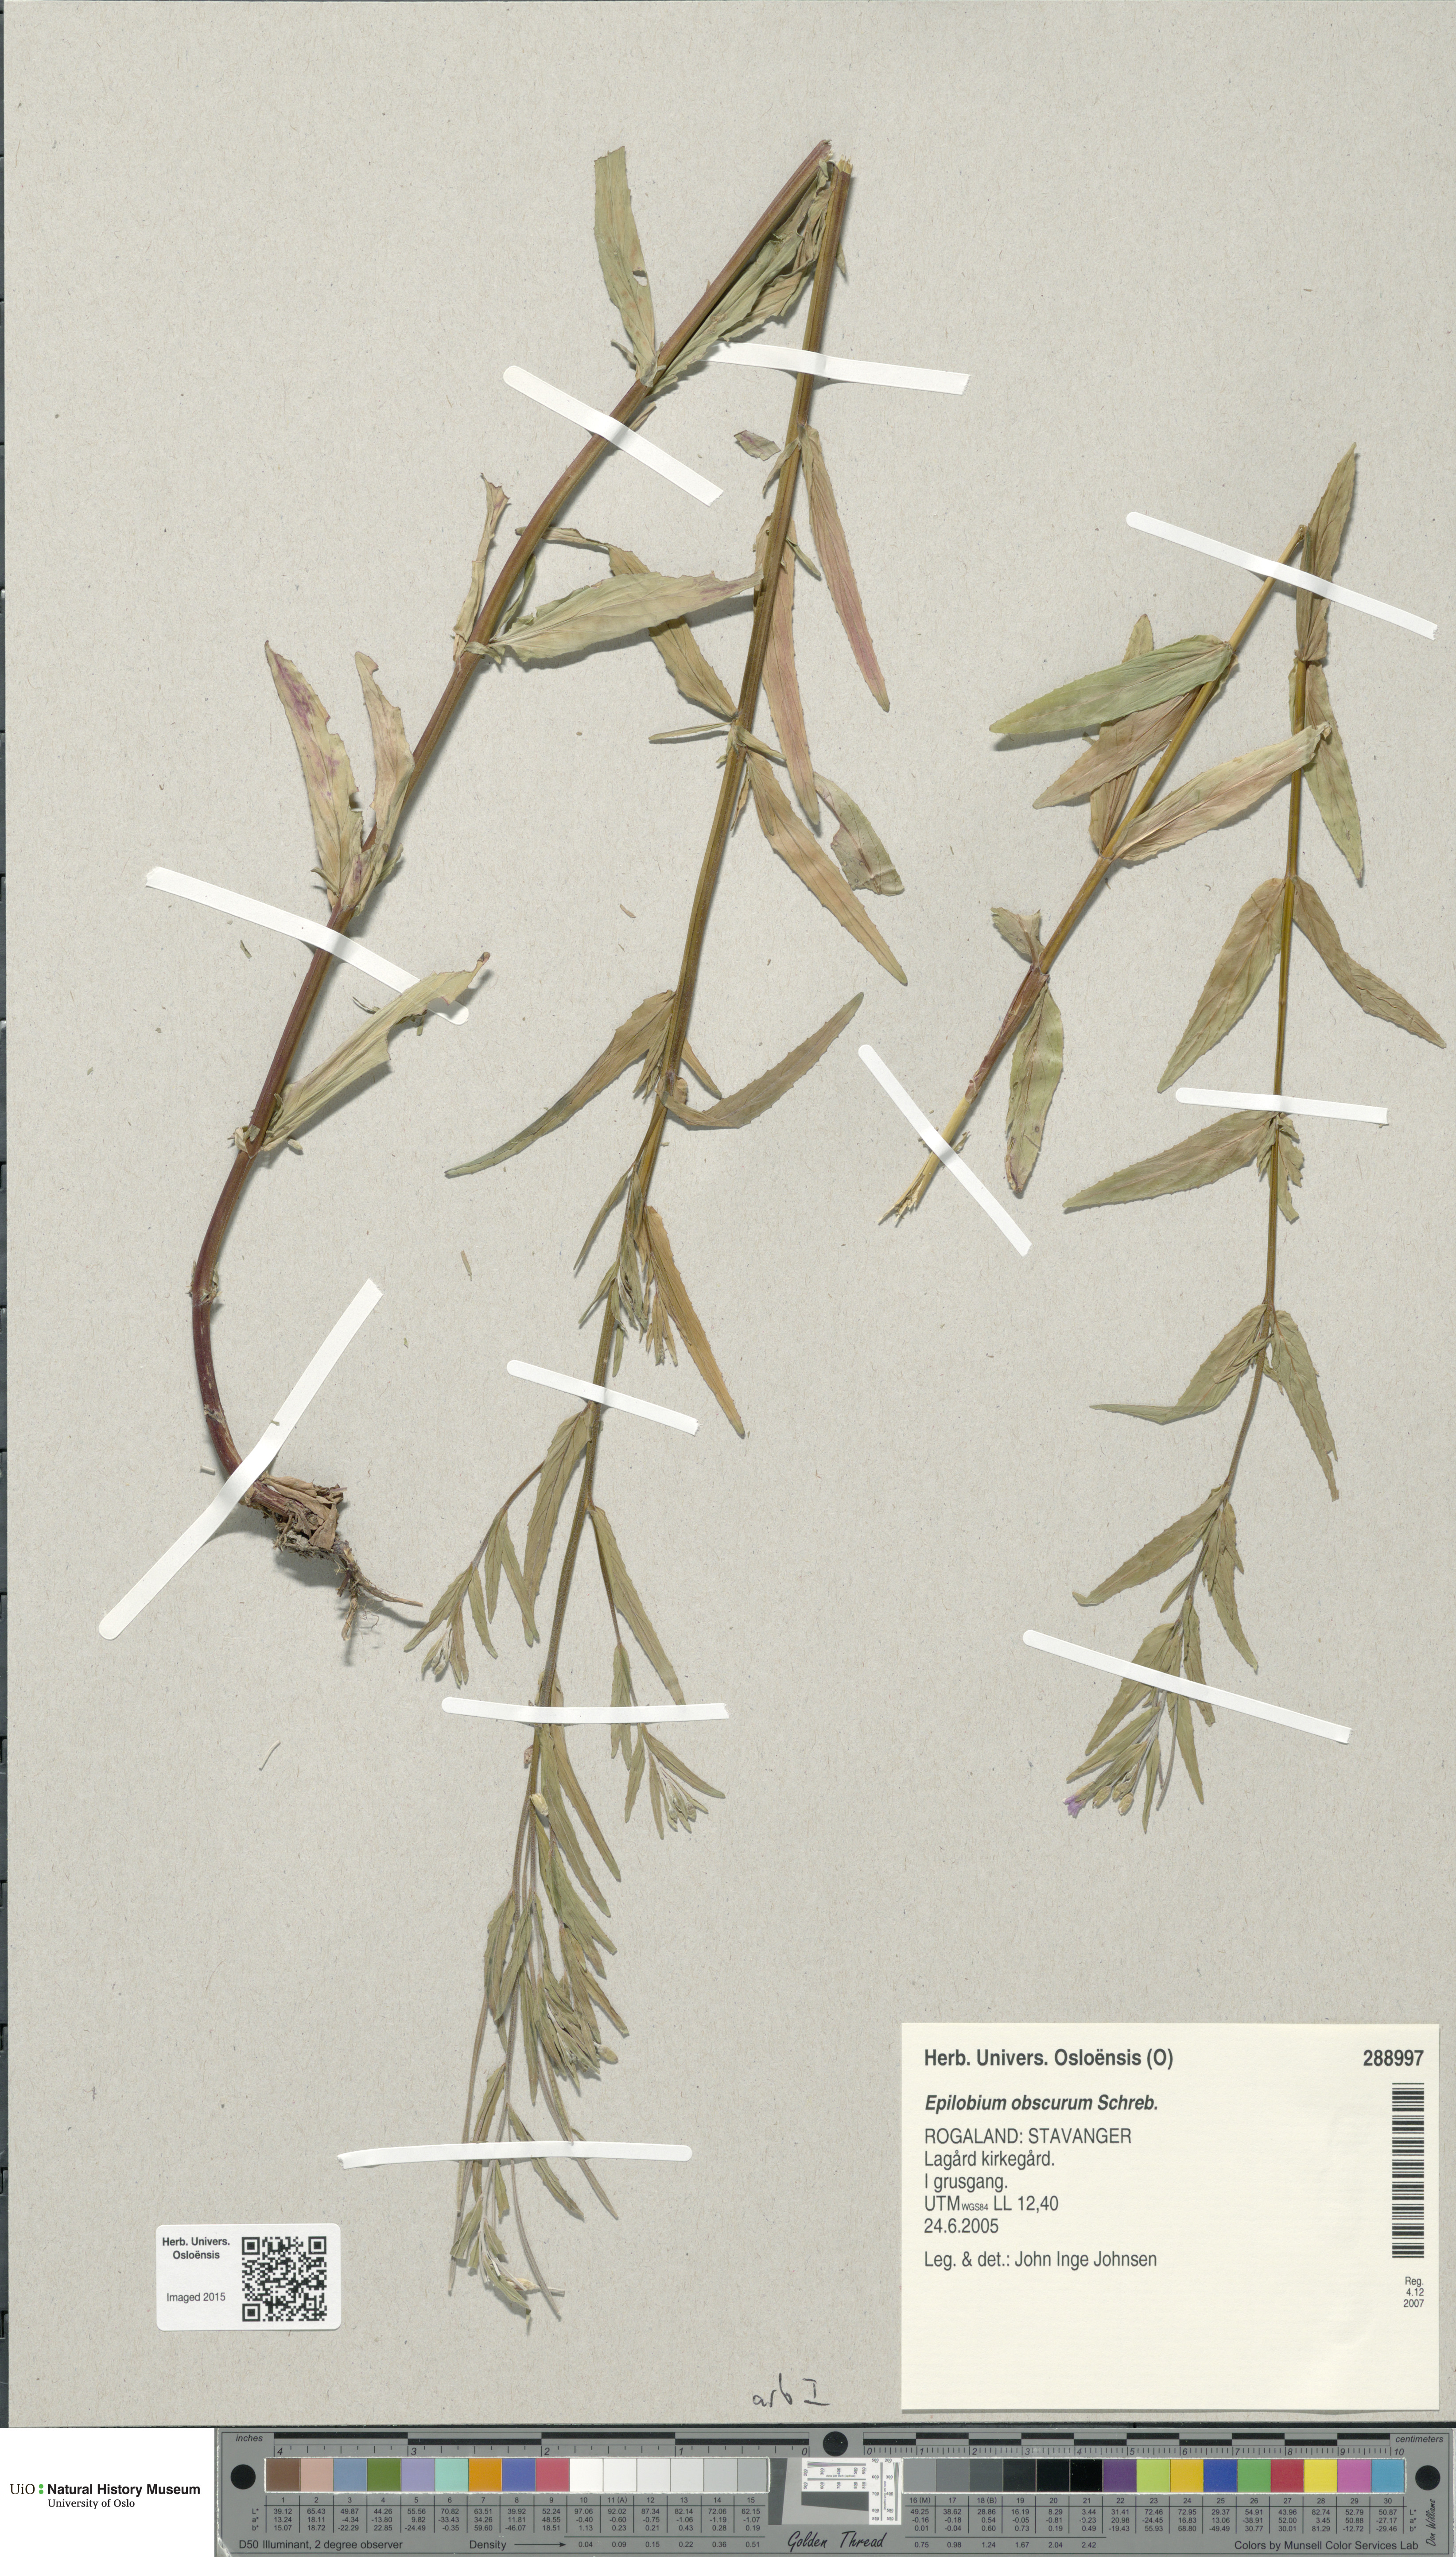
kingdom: Plantae
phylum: Tracheophyta
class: Magnoliopsida
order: Myrtales
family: Onagraceae
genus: Epilobium
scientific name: Epilobium obscurum
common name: Short-fruited willowherb
